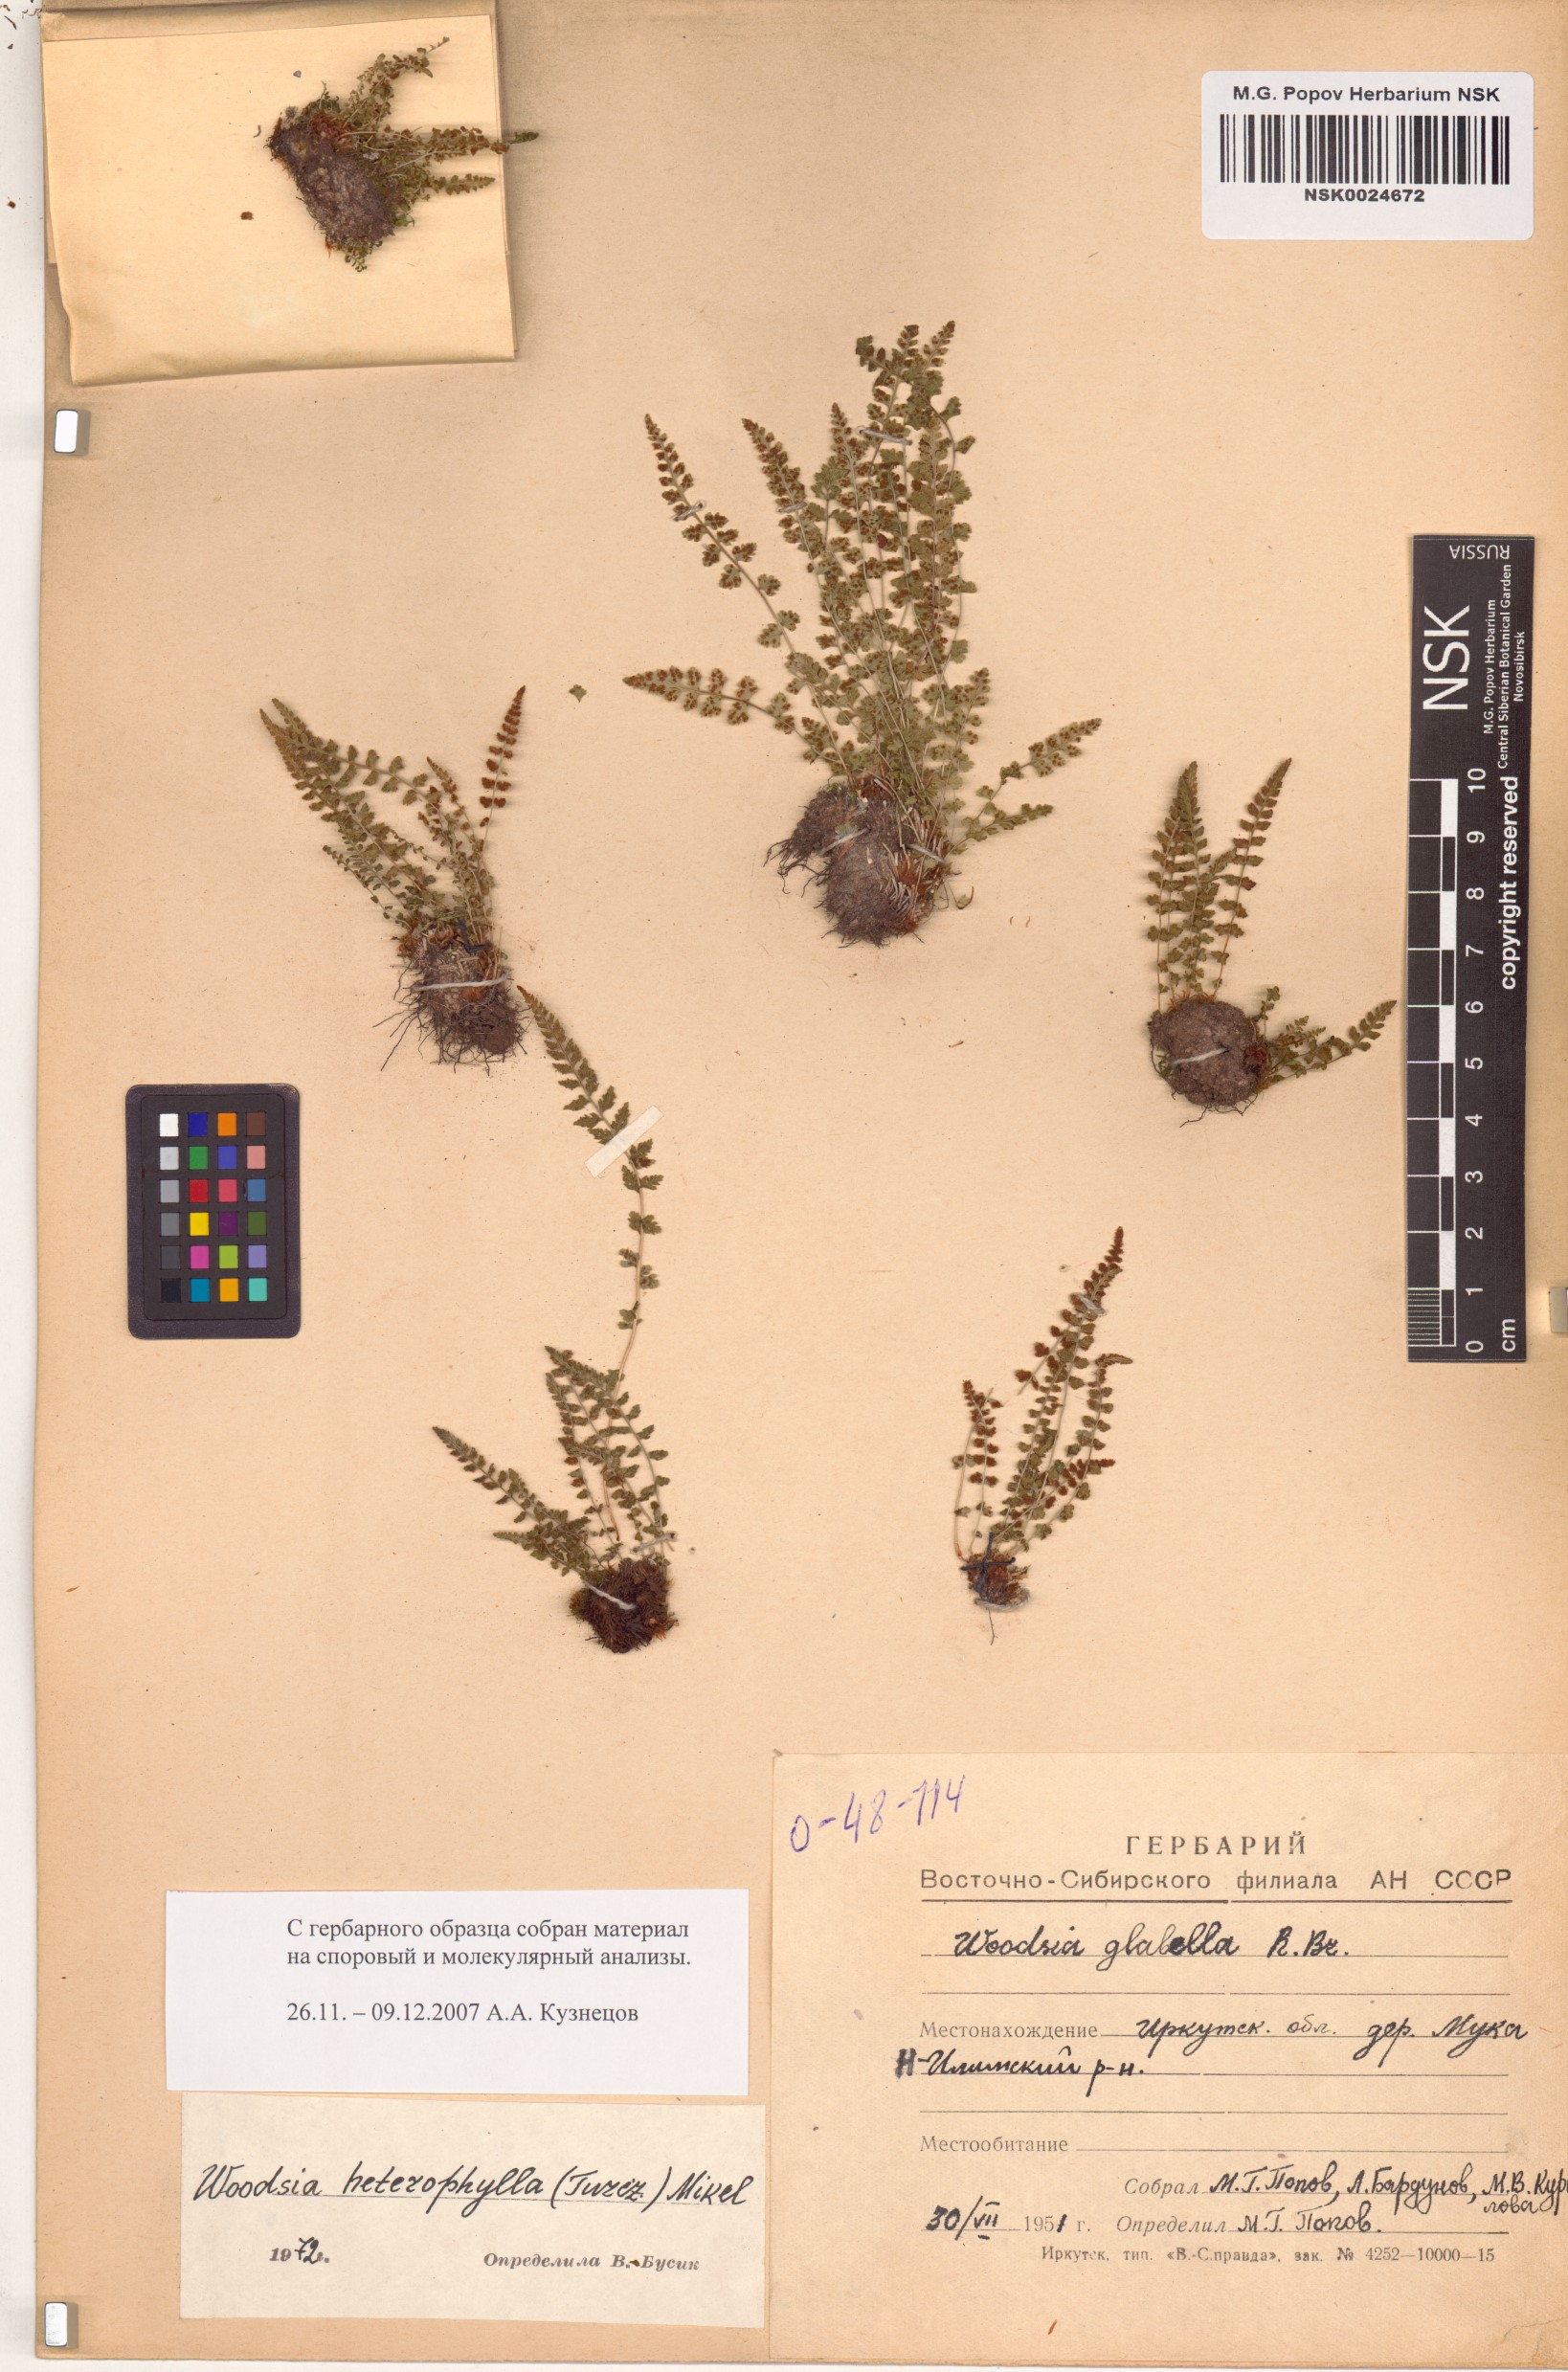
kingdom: Plantae
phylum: Tracheophyta
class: Polypodiopsida
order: Polypodiales
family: Woodsiaceae
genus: Woodsia
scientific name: Woodsia pulchella
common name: Graceful woodsia
